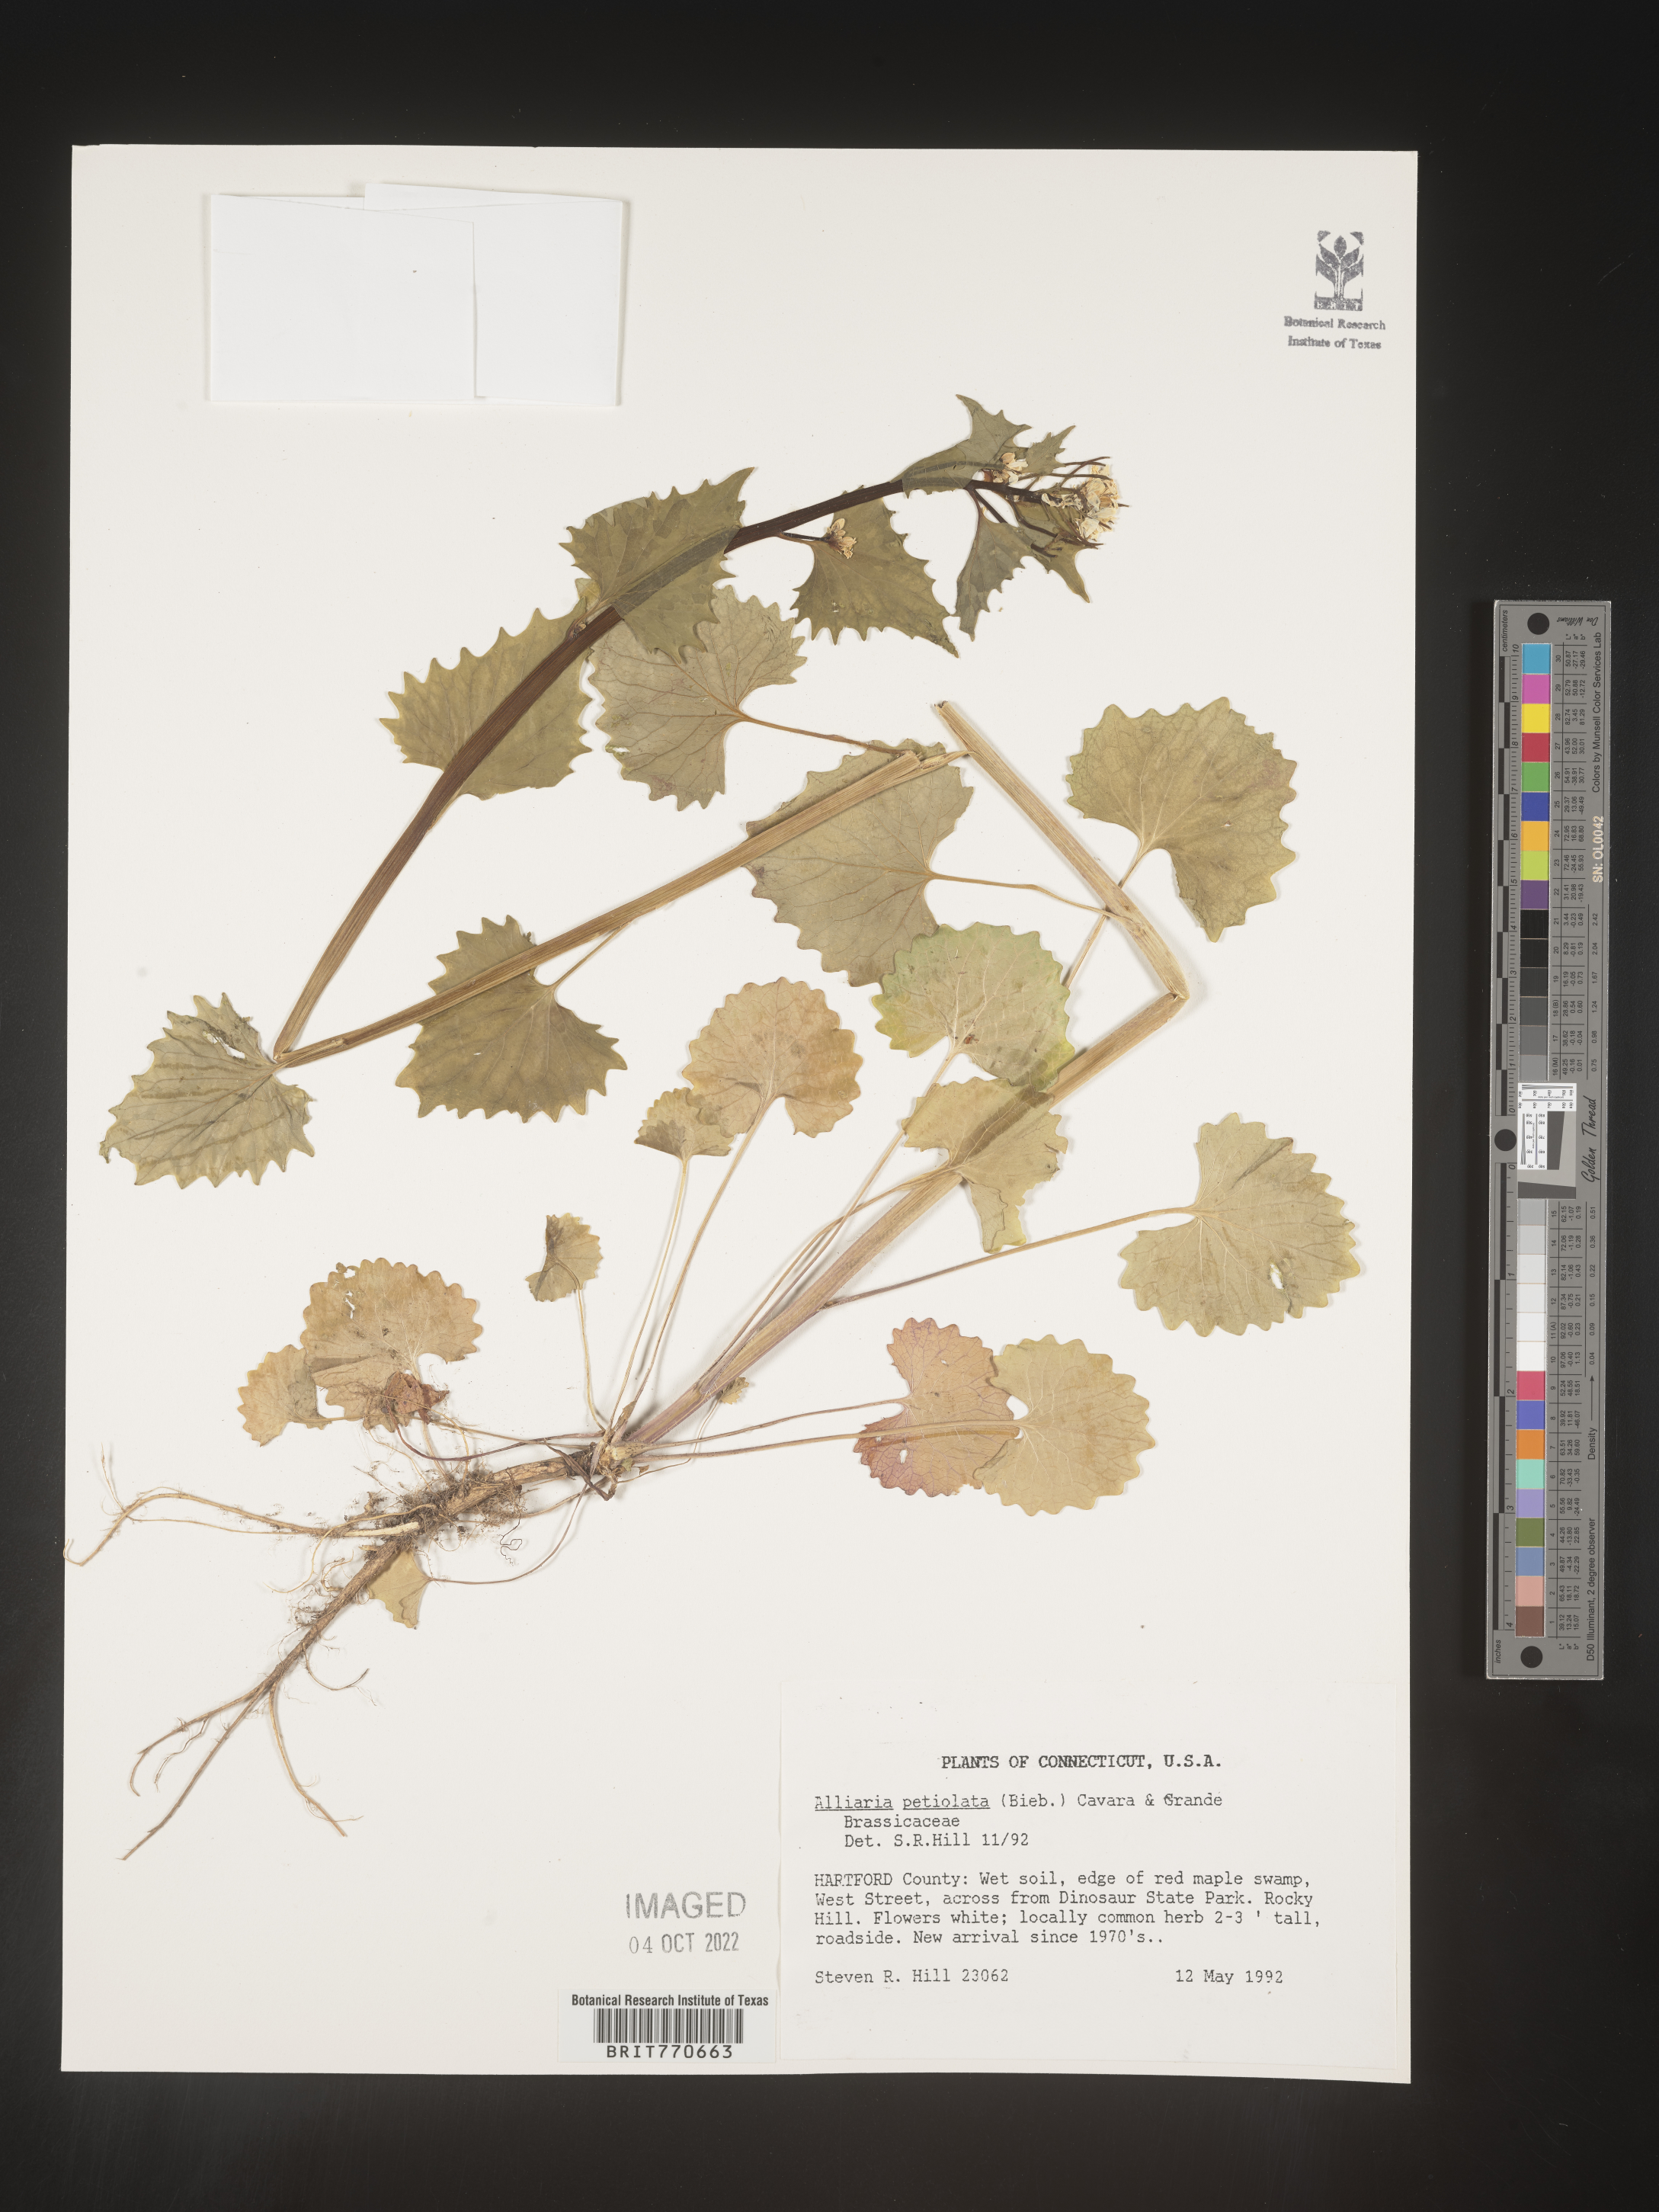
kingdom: Plantae
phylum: Tracheophyta
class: Magnoliopsida
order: Brassicales
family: Brassicaceae
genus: Alliaria
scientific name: Alliaria
